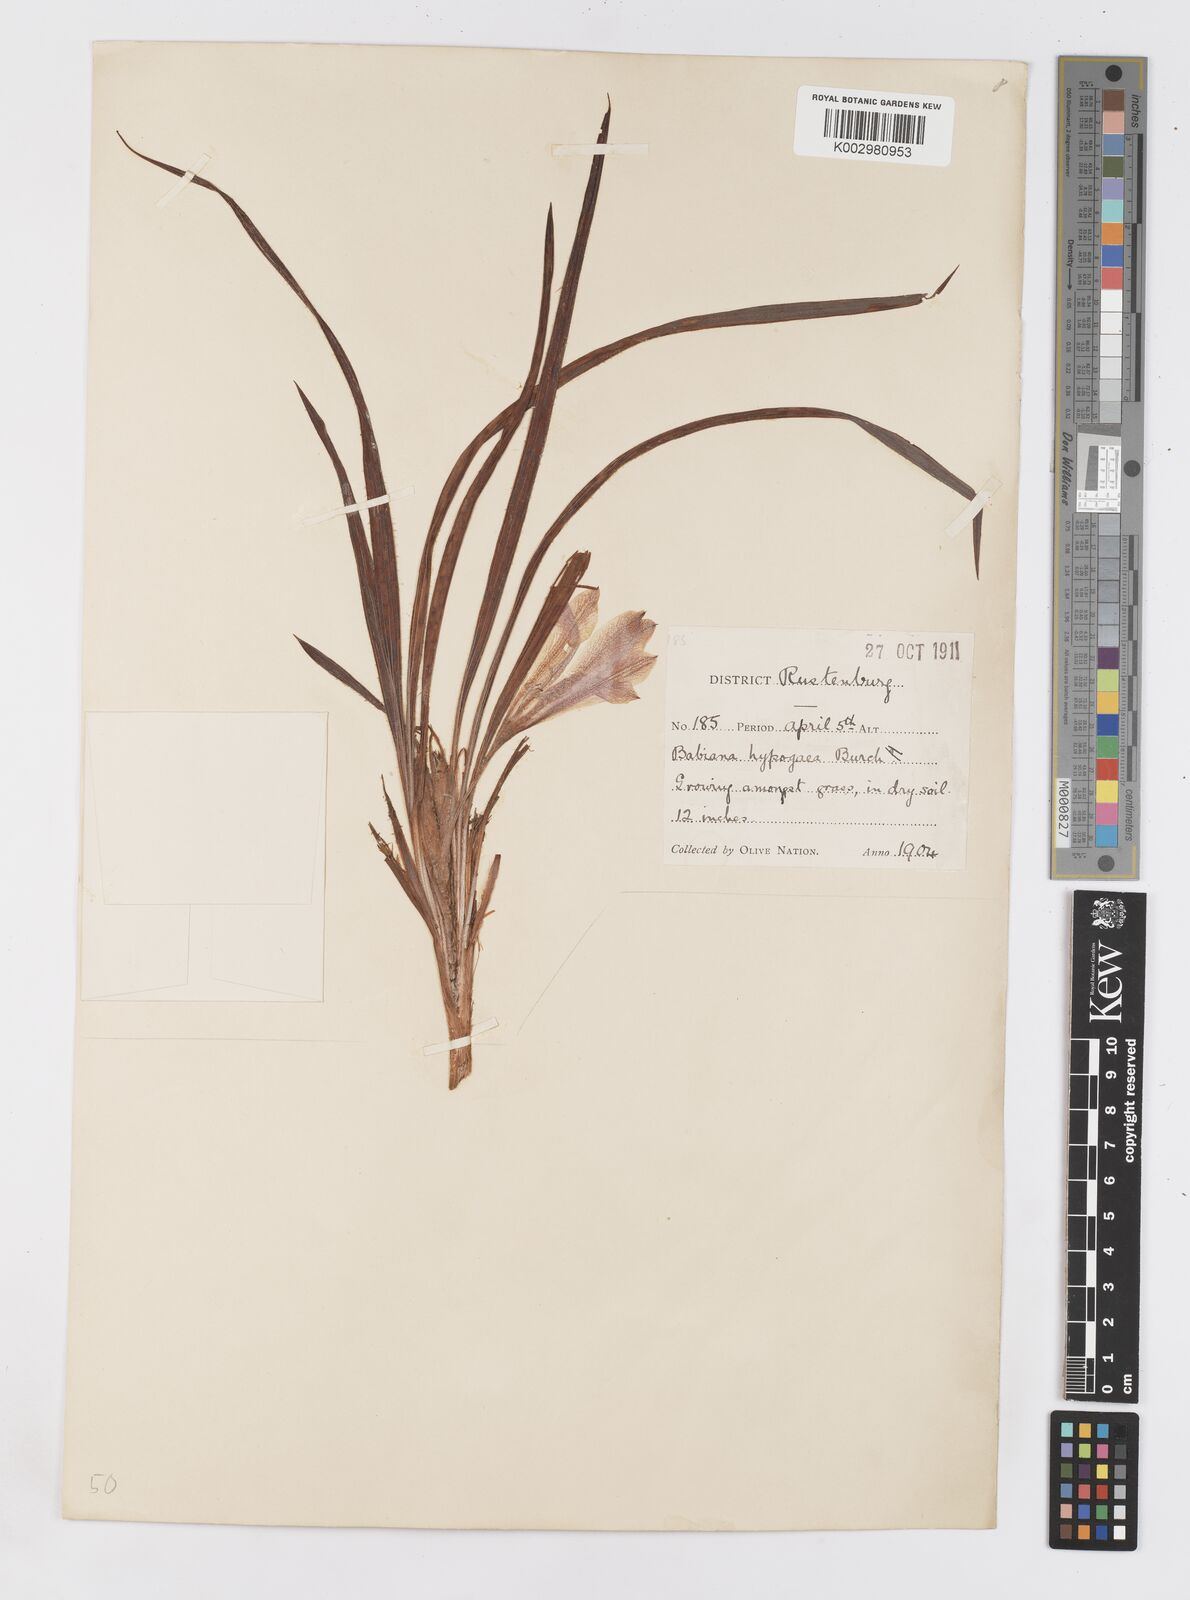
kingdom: Plantae
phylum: Tracheophyta
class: Liliopsida
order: Asparagales
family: Iridaceae
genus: Babiana
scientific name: Babiana bainesii
